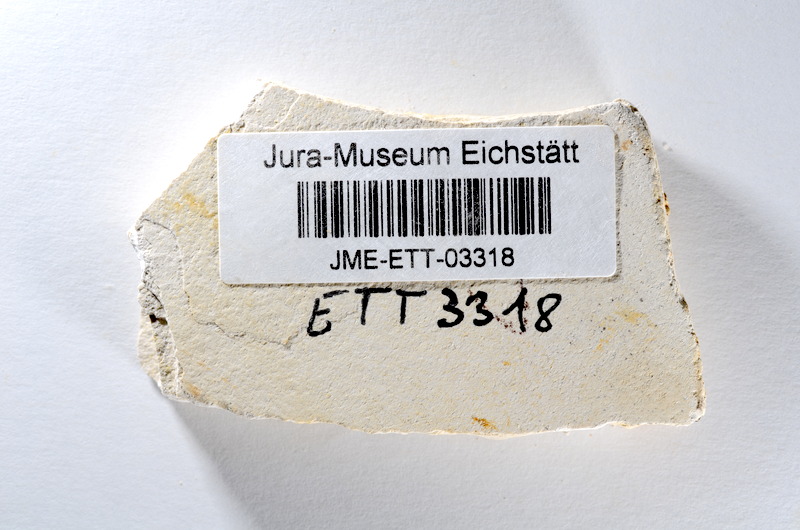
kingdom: Animalia
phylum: Chordata
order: Salmoniformes
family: Orthogonikleithridae
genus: Orthogonikleithrus
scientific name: Orthogonikleithrus hoelli
